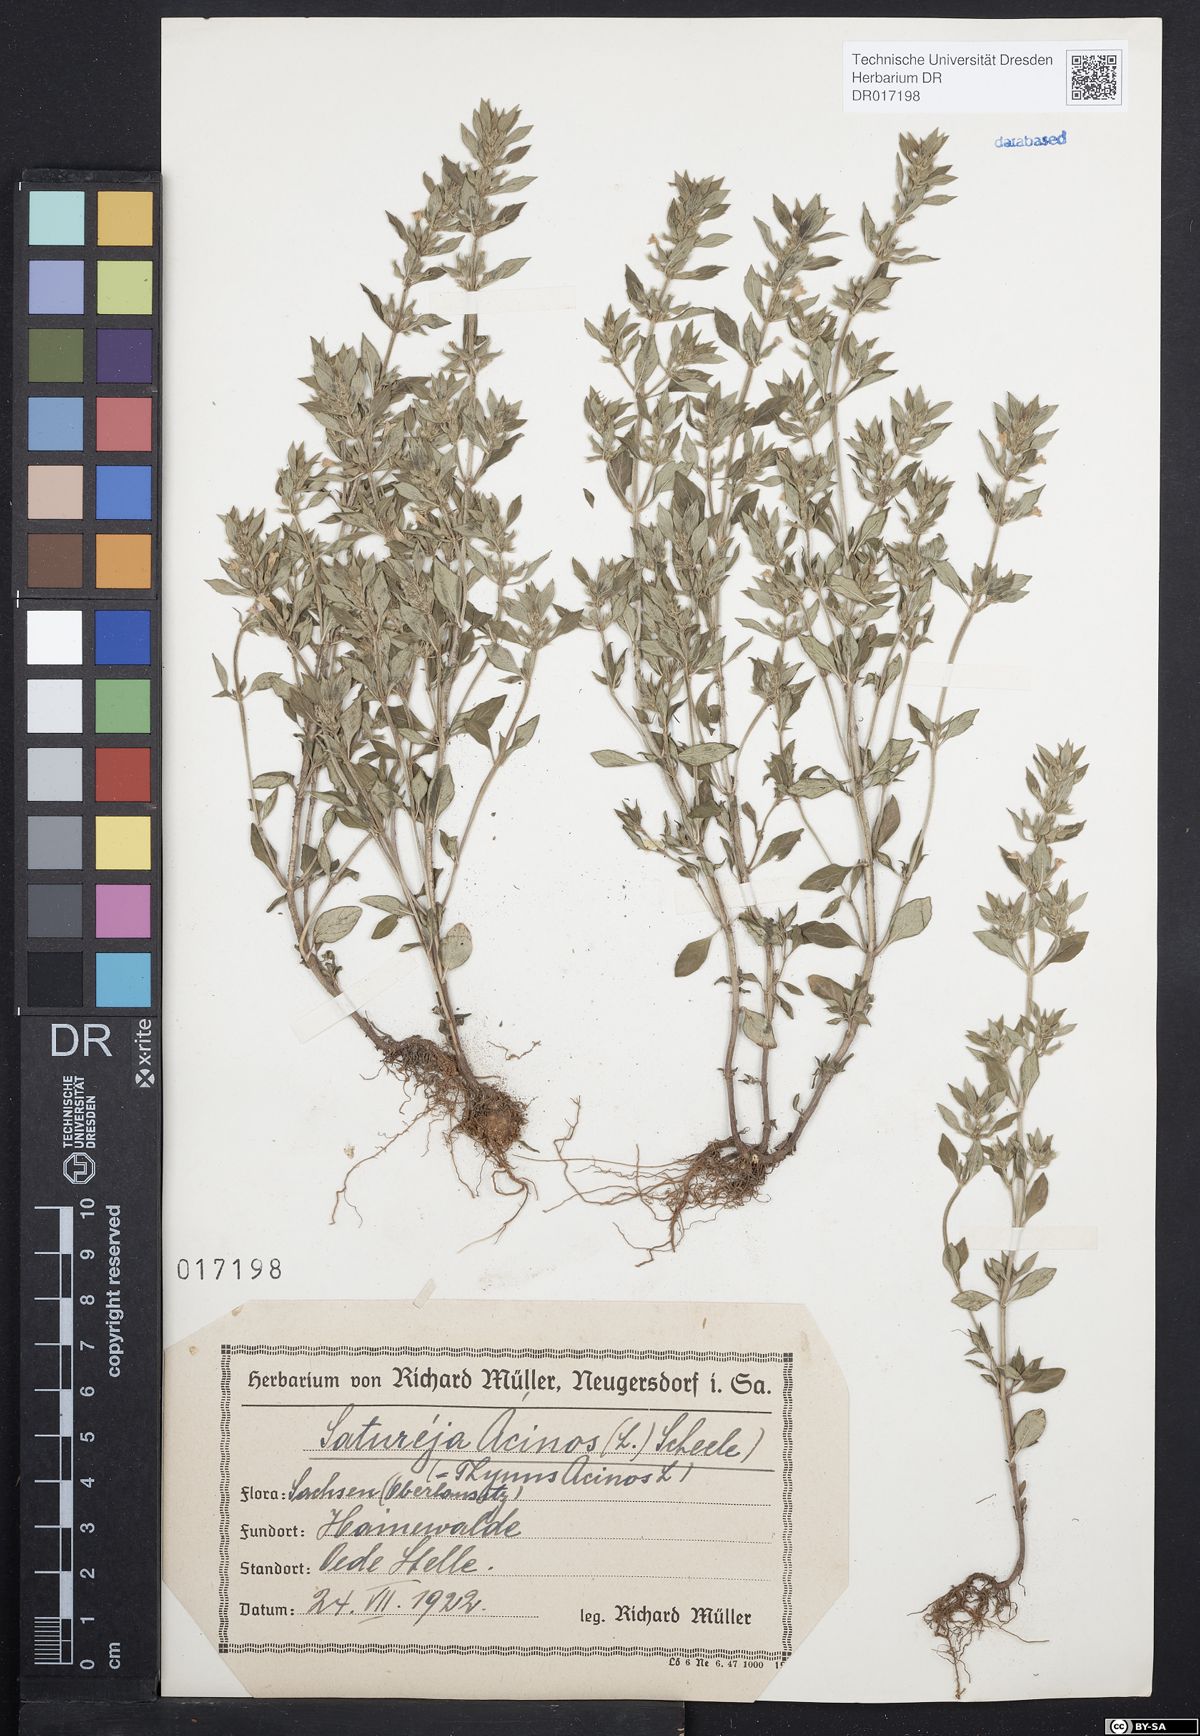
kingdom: Plantae
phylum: Tracheophyta
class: Magnoliopsida
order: Lamiales
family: Lamiaceae
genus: Clinopodium
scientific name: Clinopodium acinos
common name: Basil thyme
